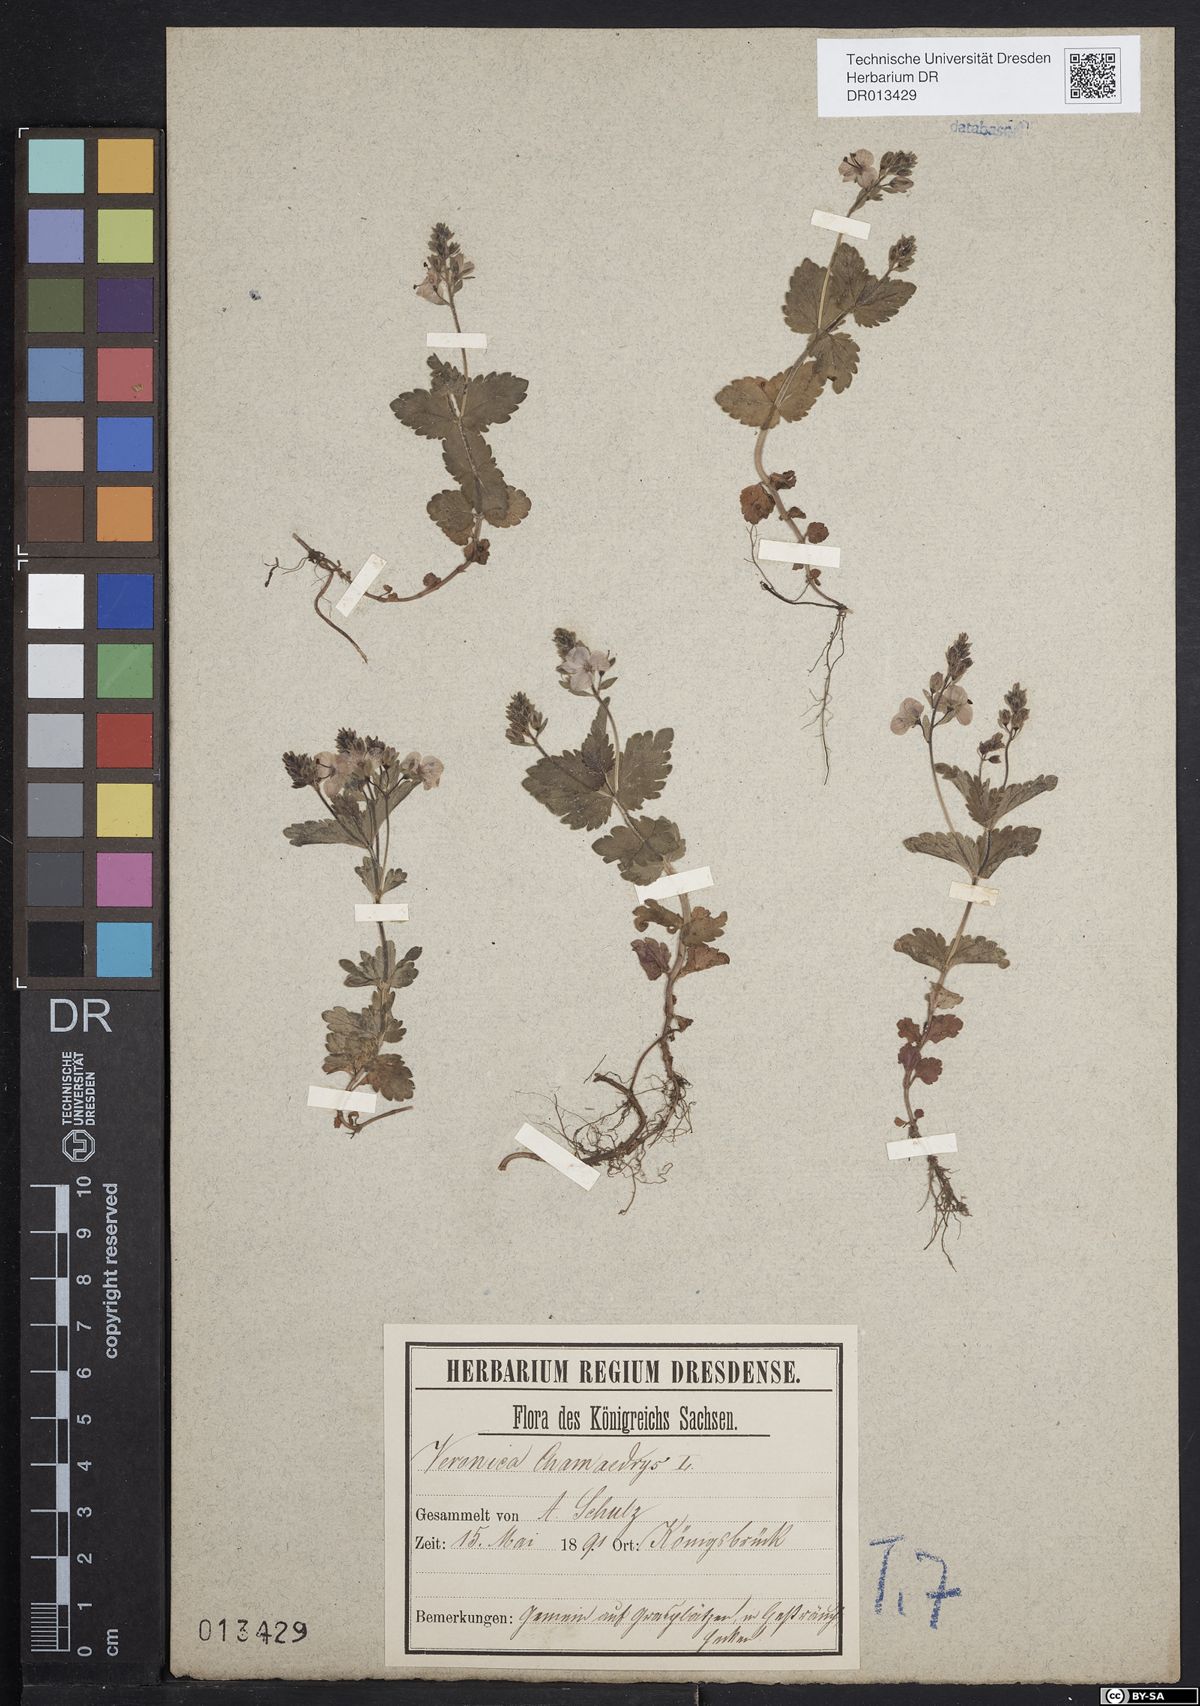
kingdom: Plantae
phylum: Tracheophyta
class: Magnoliopsida
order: Lamiales
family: Plantaginaceae
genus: Veronica
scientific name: Veronica chamaedrys
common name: Germander speedwell
